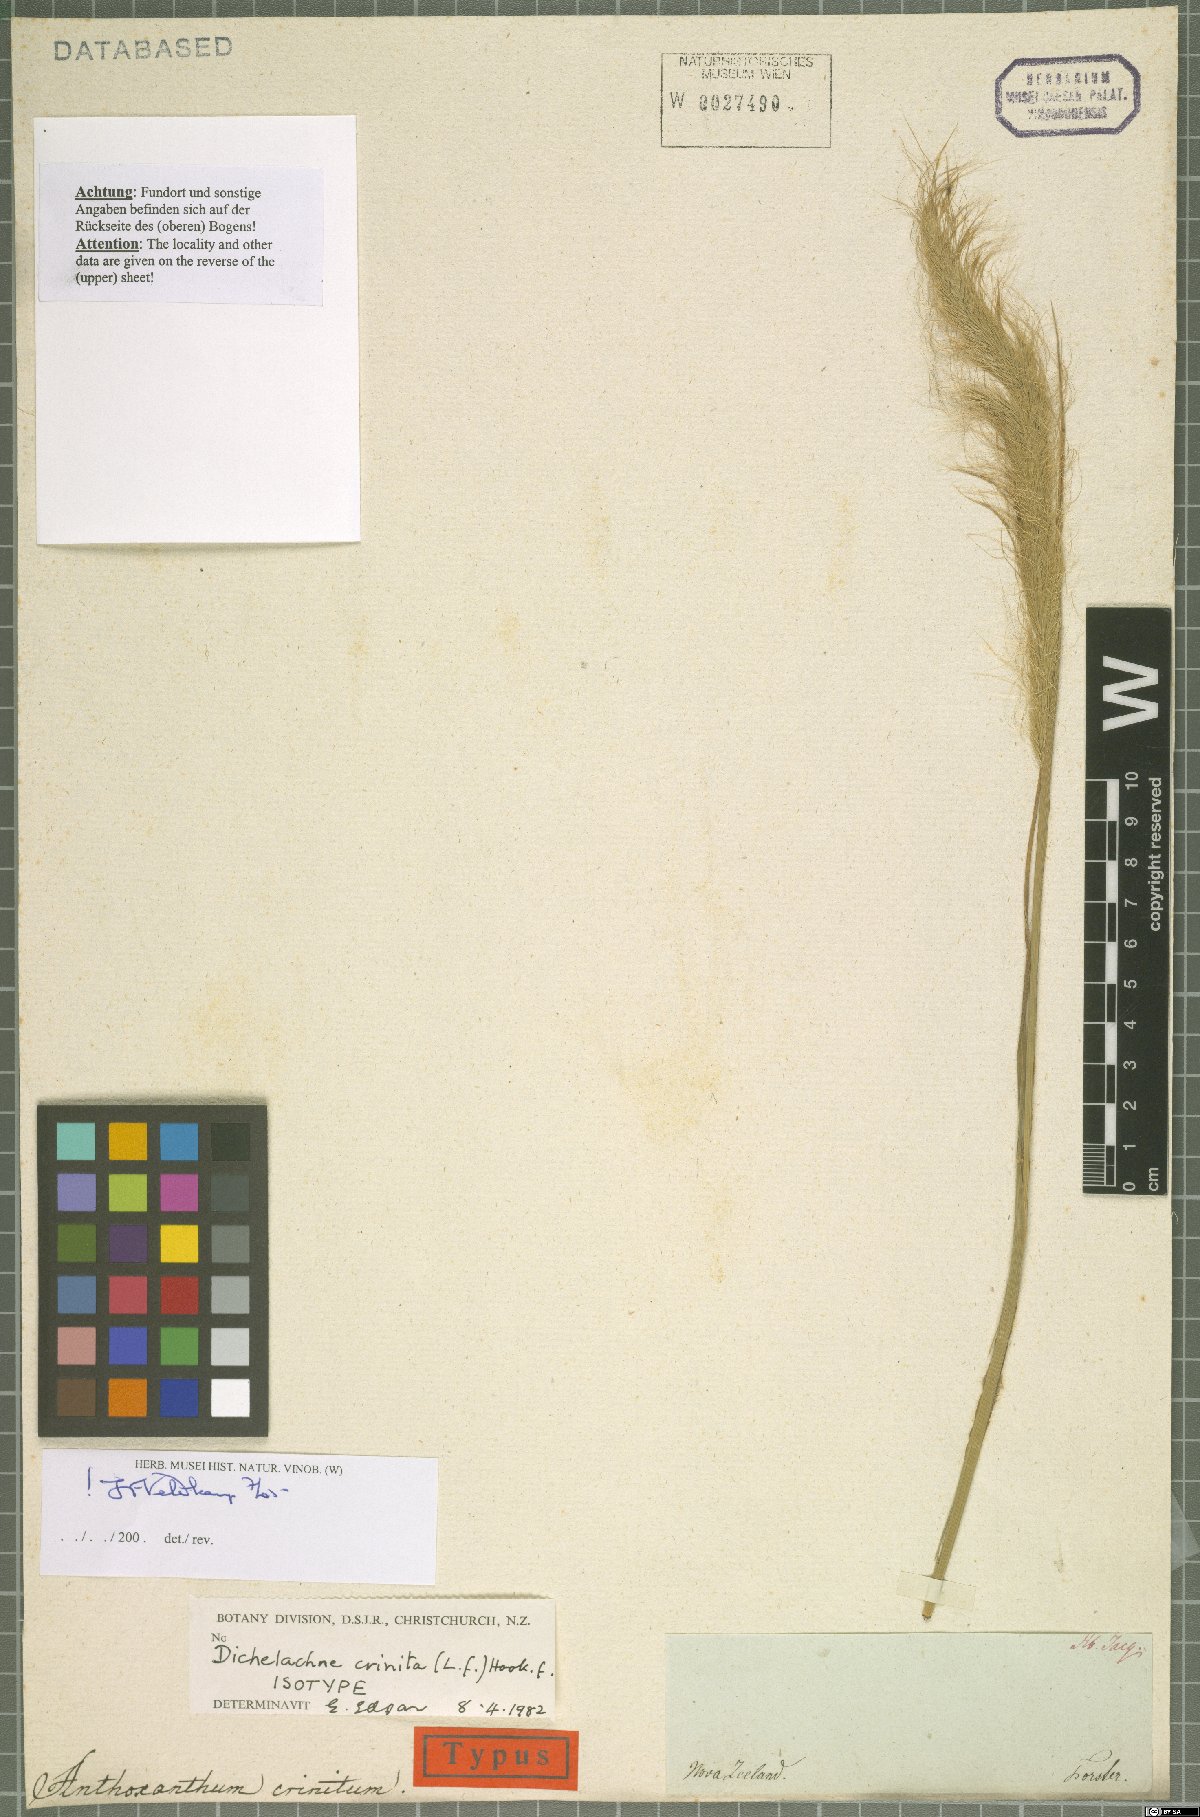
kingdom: Plantae
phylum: Tracheophyta
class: Liliopsida
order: Poales
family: Poaceae
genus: Dichelachne
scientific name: Dichelachne crinita
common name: Clovenfoot plumegrass
